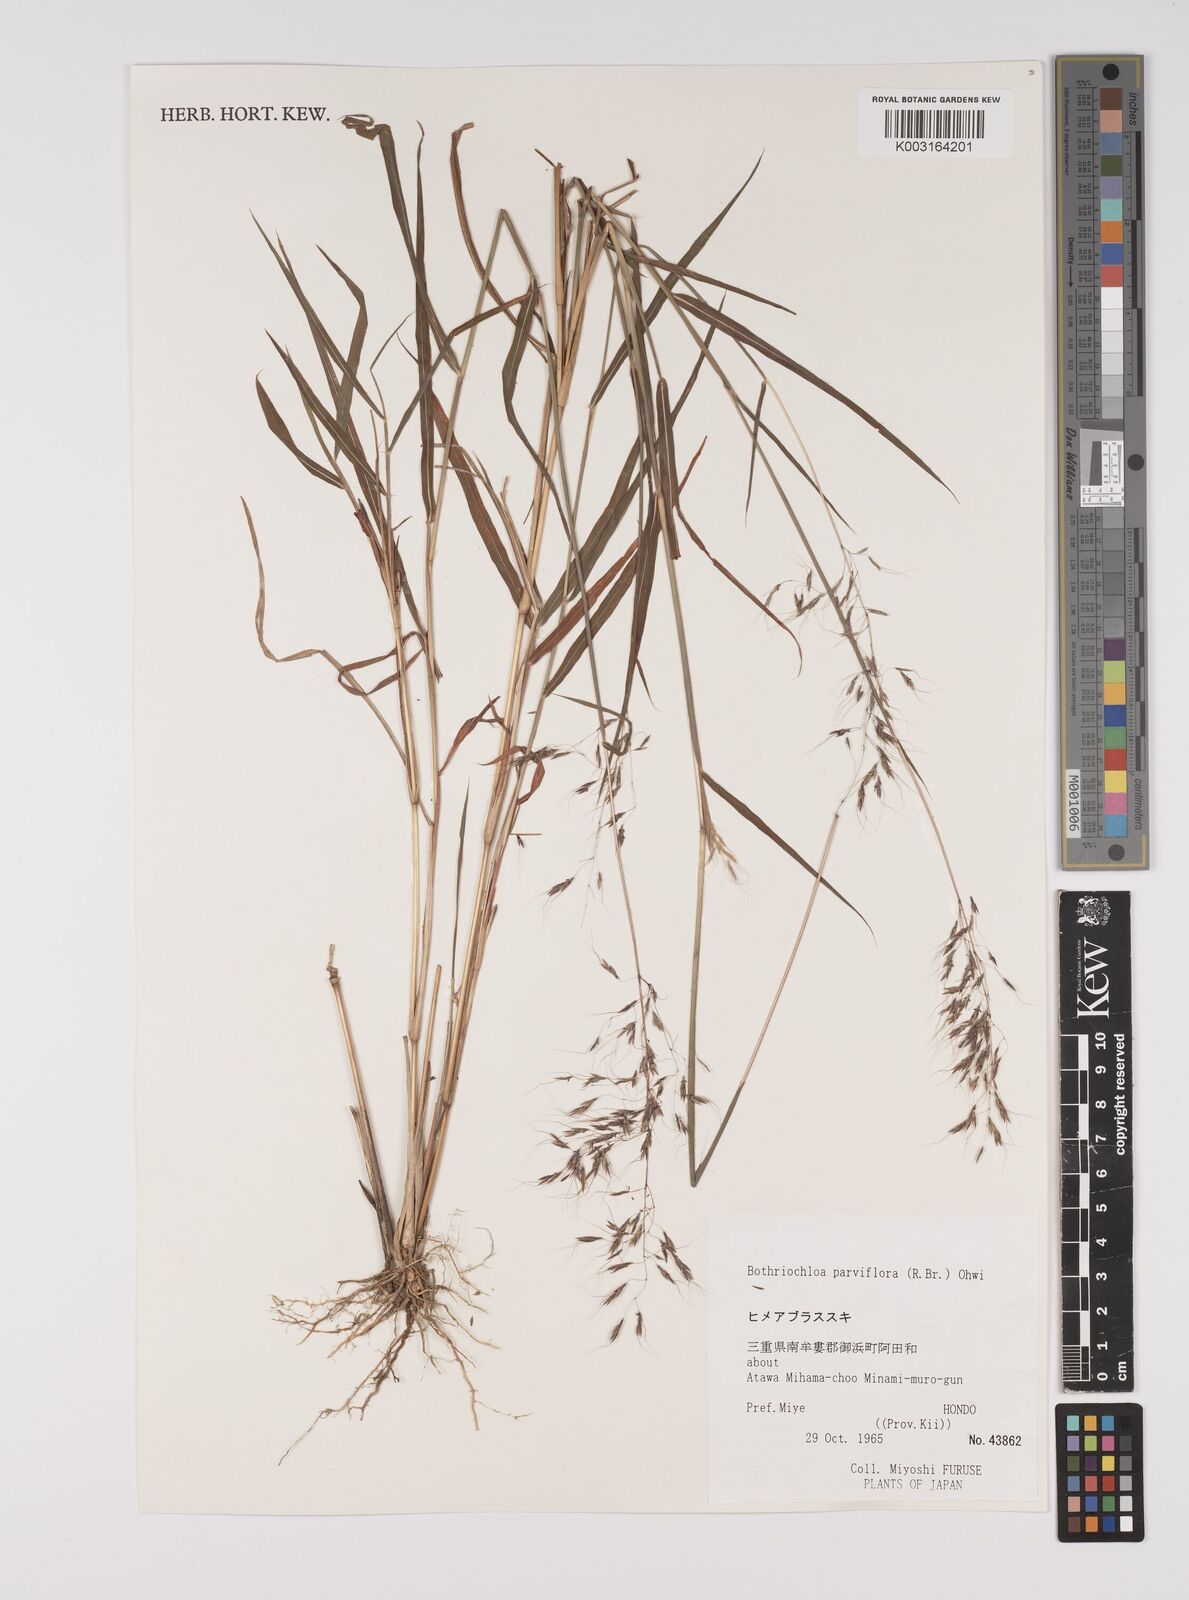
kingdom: Plantae
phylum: Tracheophyta
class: Liliopsida
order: Poales
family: Poaceae
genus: Capillipedium
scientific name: Capillipedium parviflorum
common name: Golden-beard
